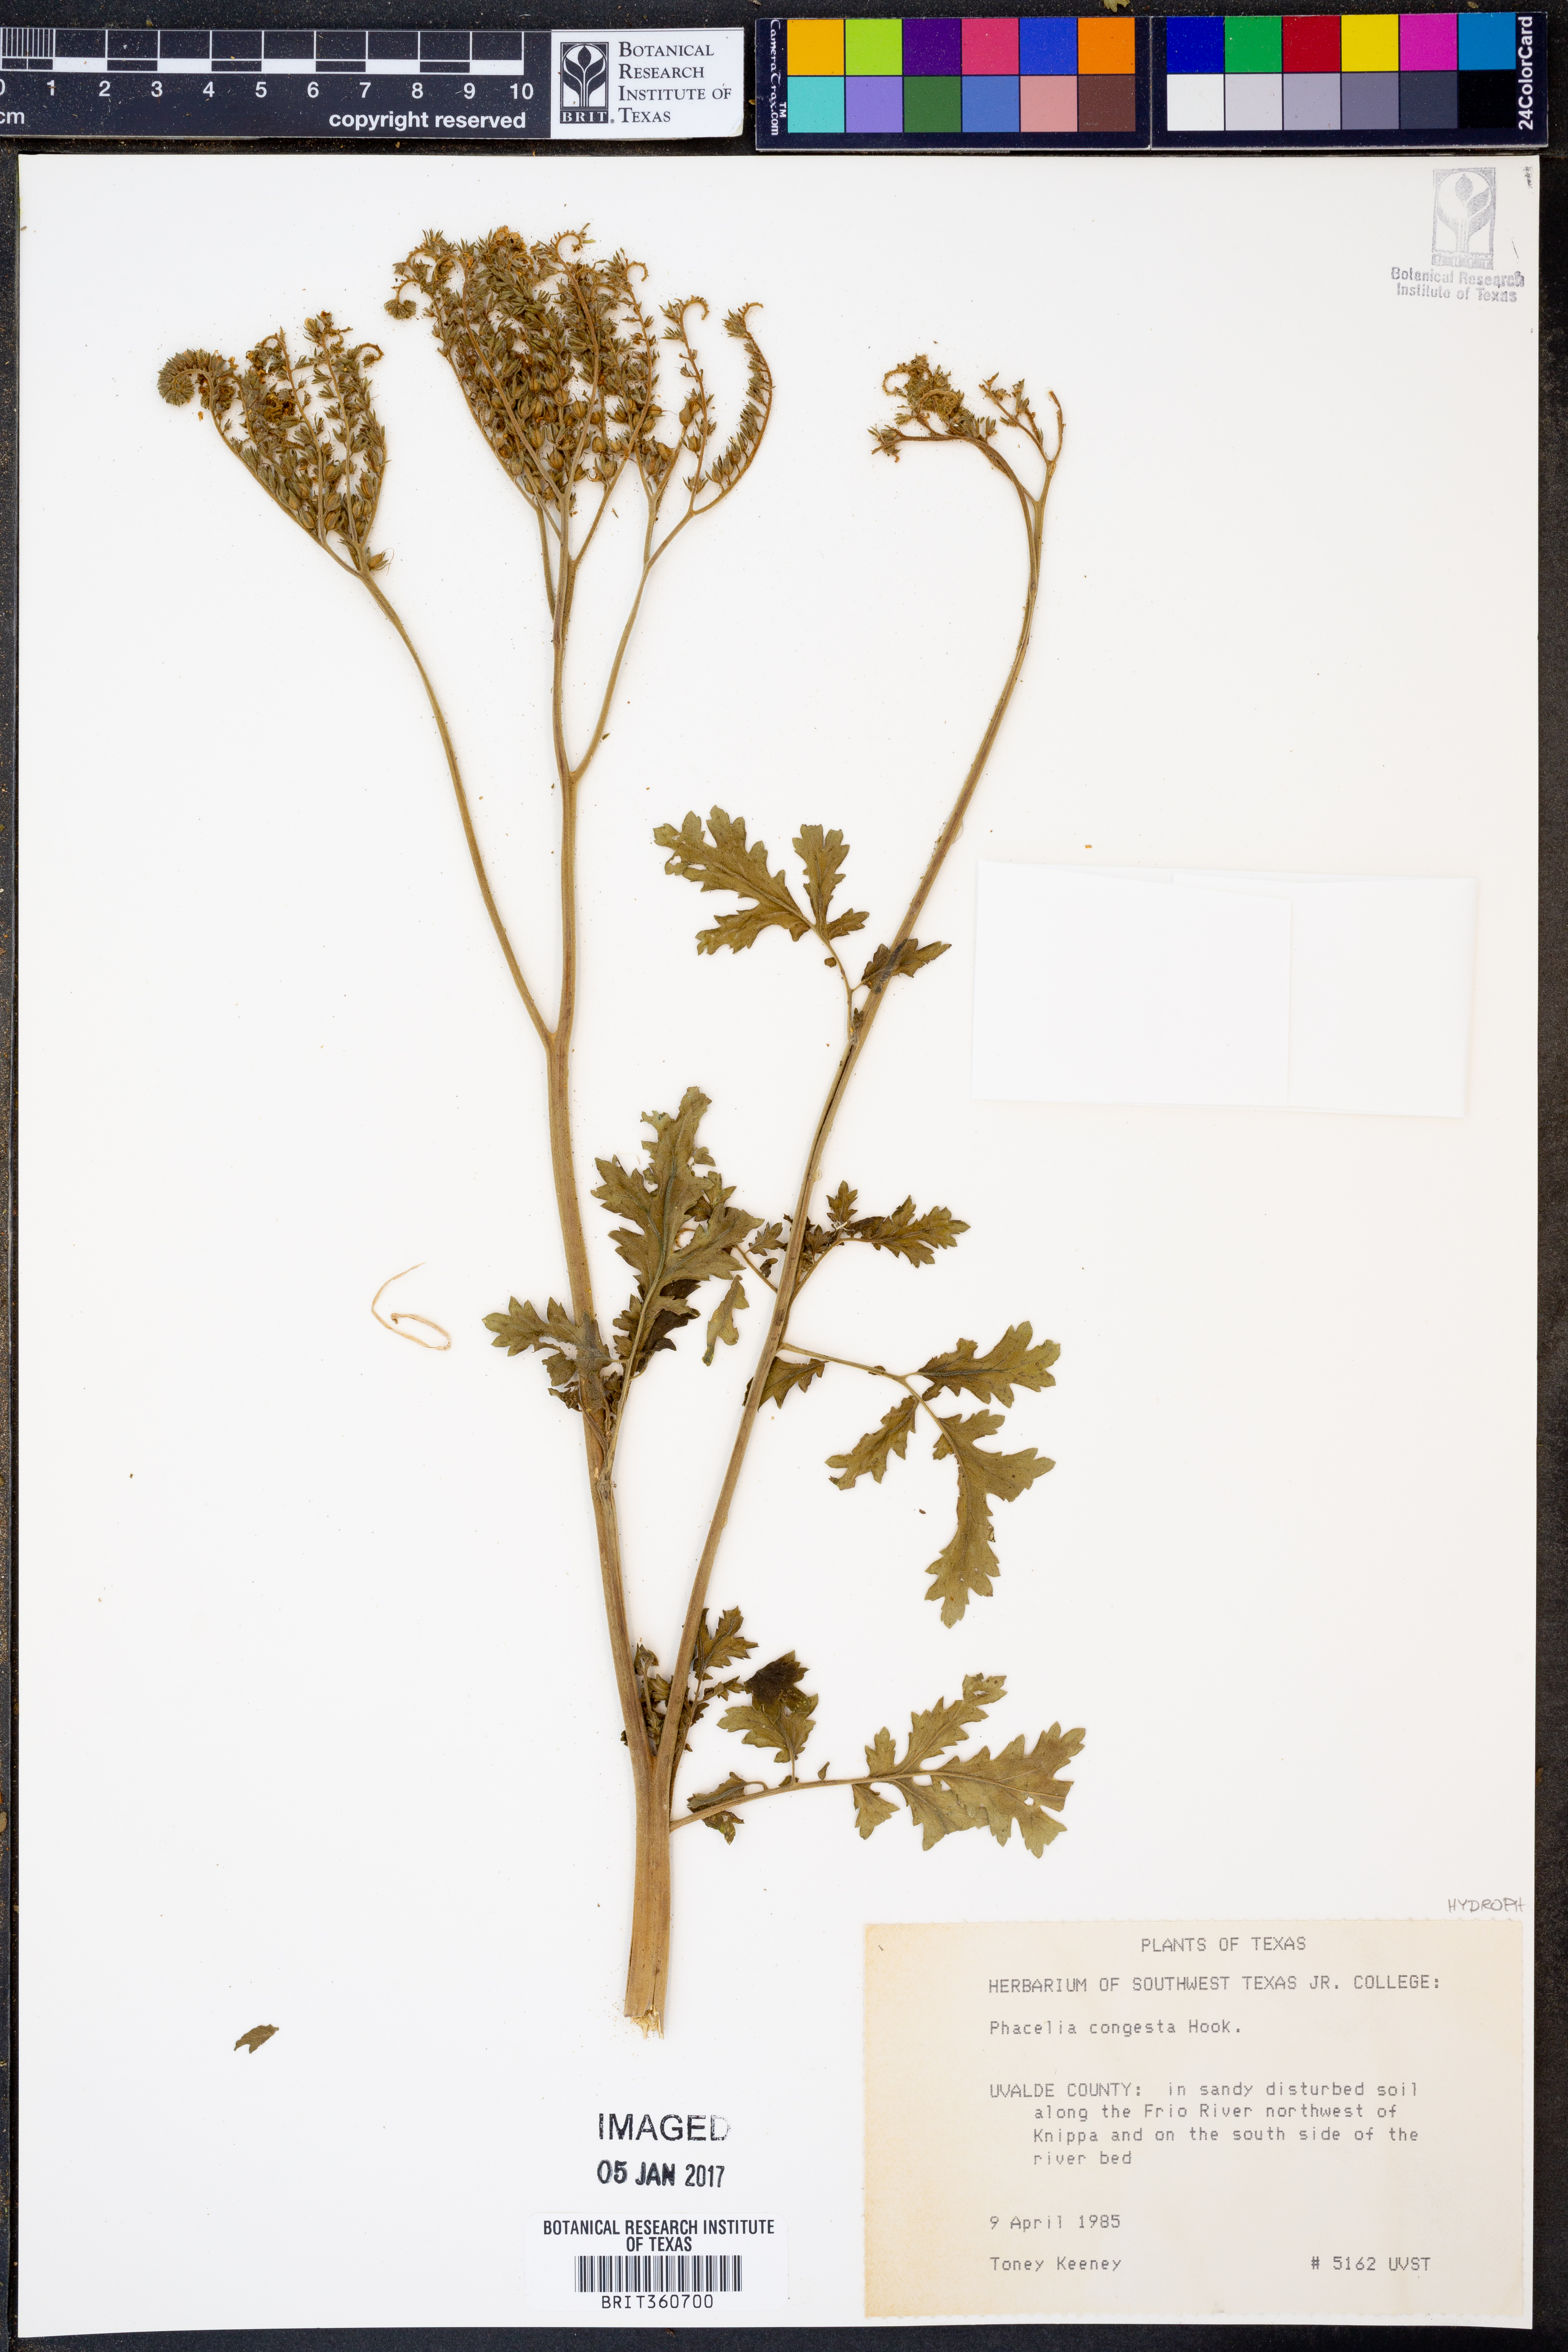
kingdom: Plantae
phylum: Tracheophyta
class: Magnoliopsida
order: Boraginales
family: Hydrophyllaceae
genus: Phacelia
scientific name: Phacelia congesta
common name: Blue curls
